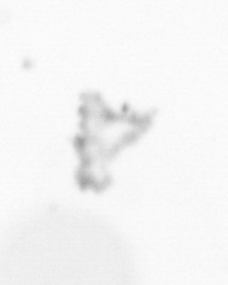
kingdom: Chromista
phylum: Ochrophyta
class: Bacillariophyceae
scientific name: Bacillariophyceae
